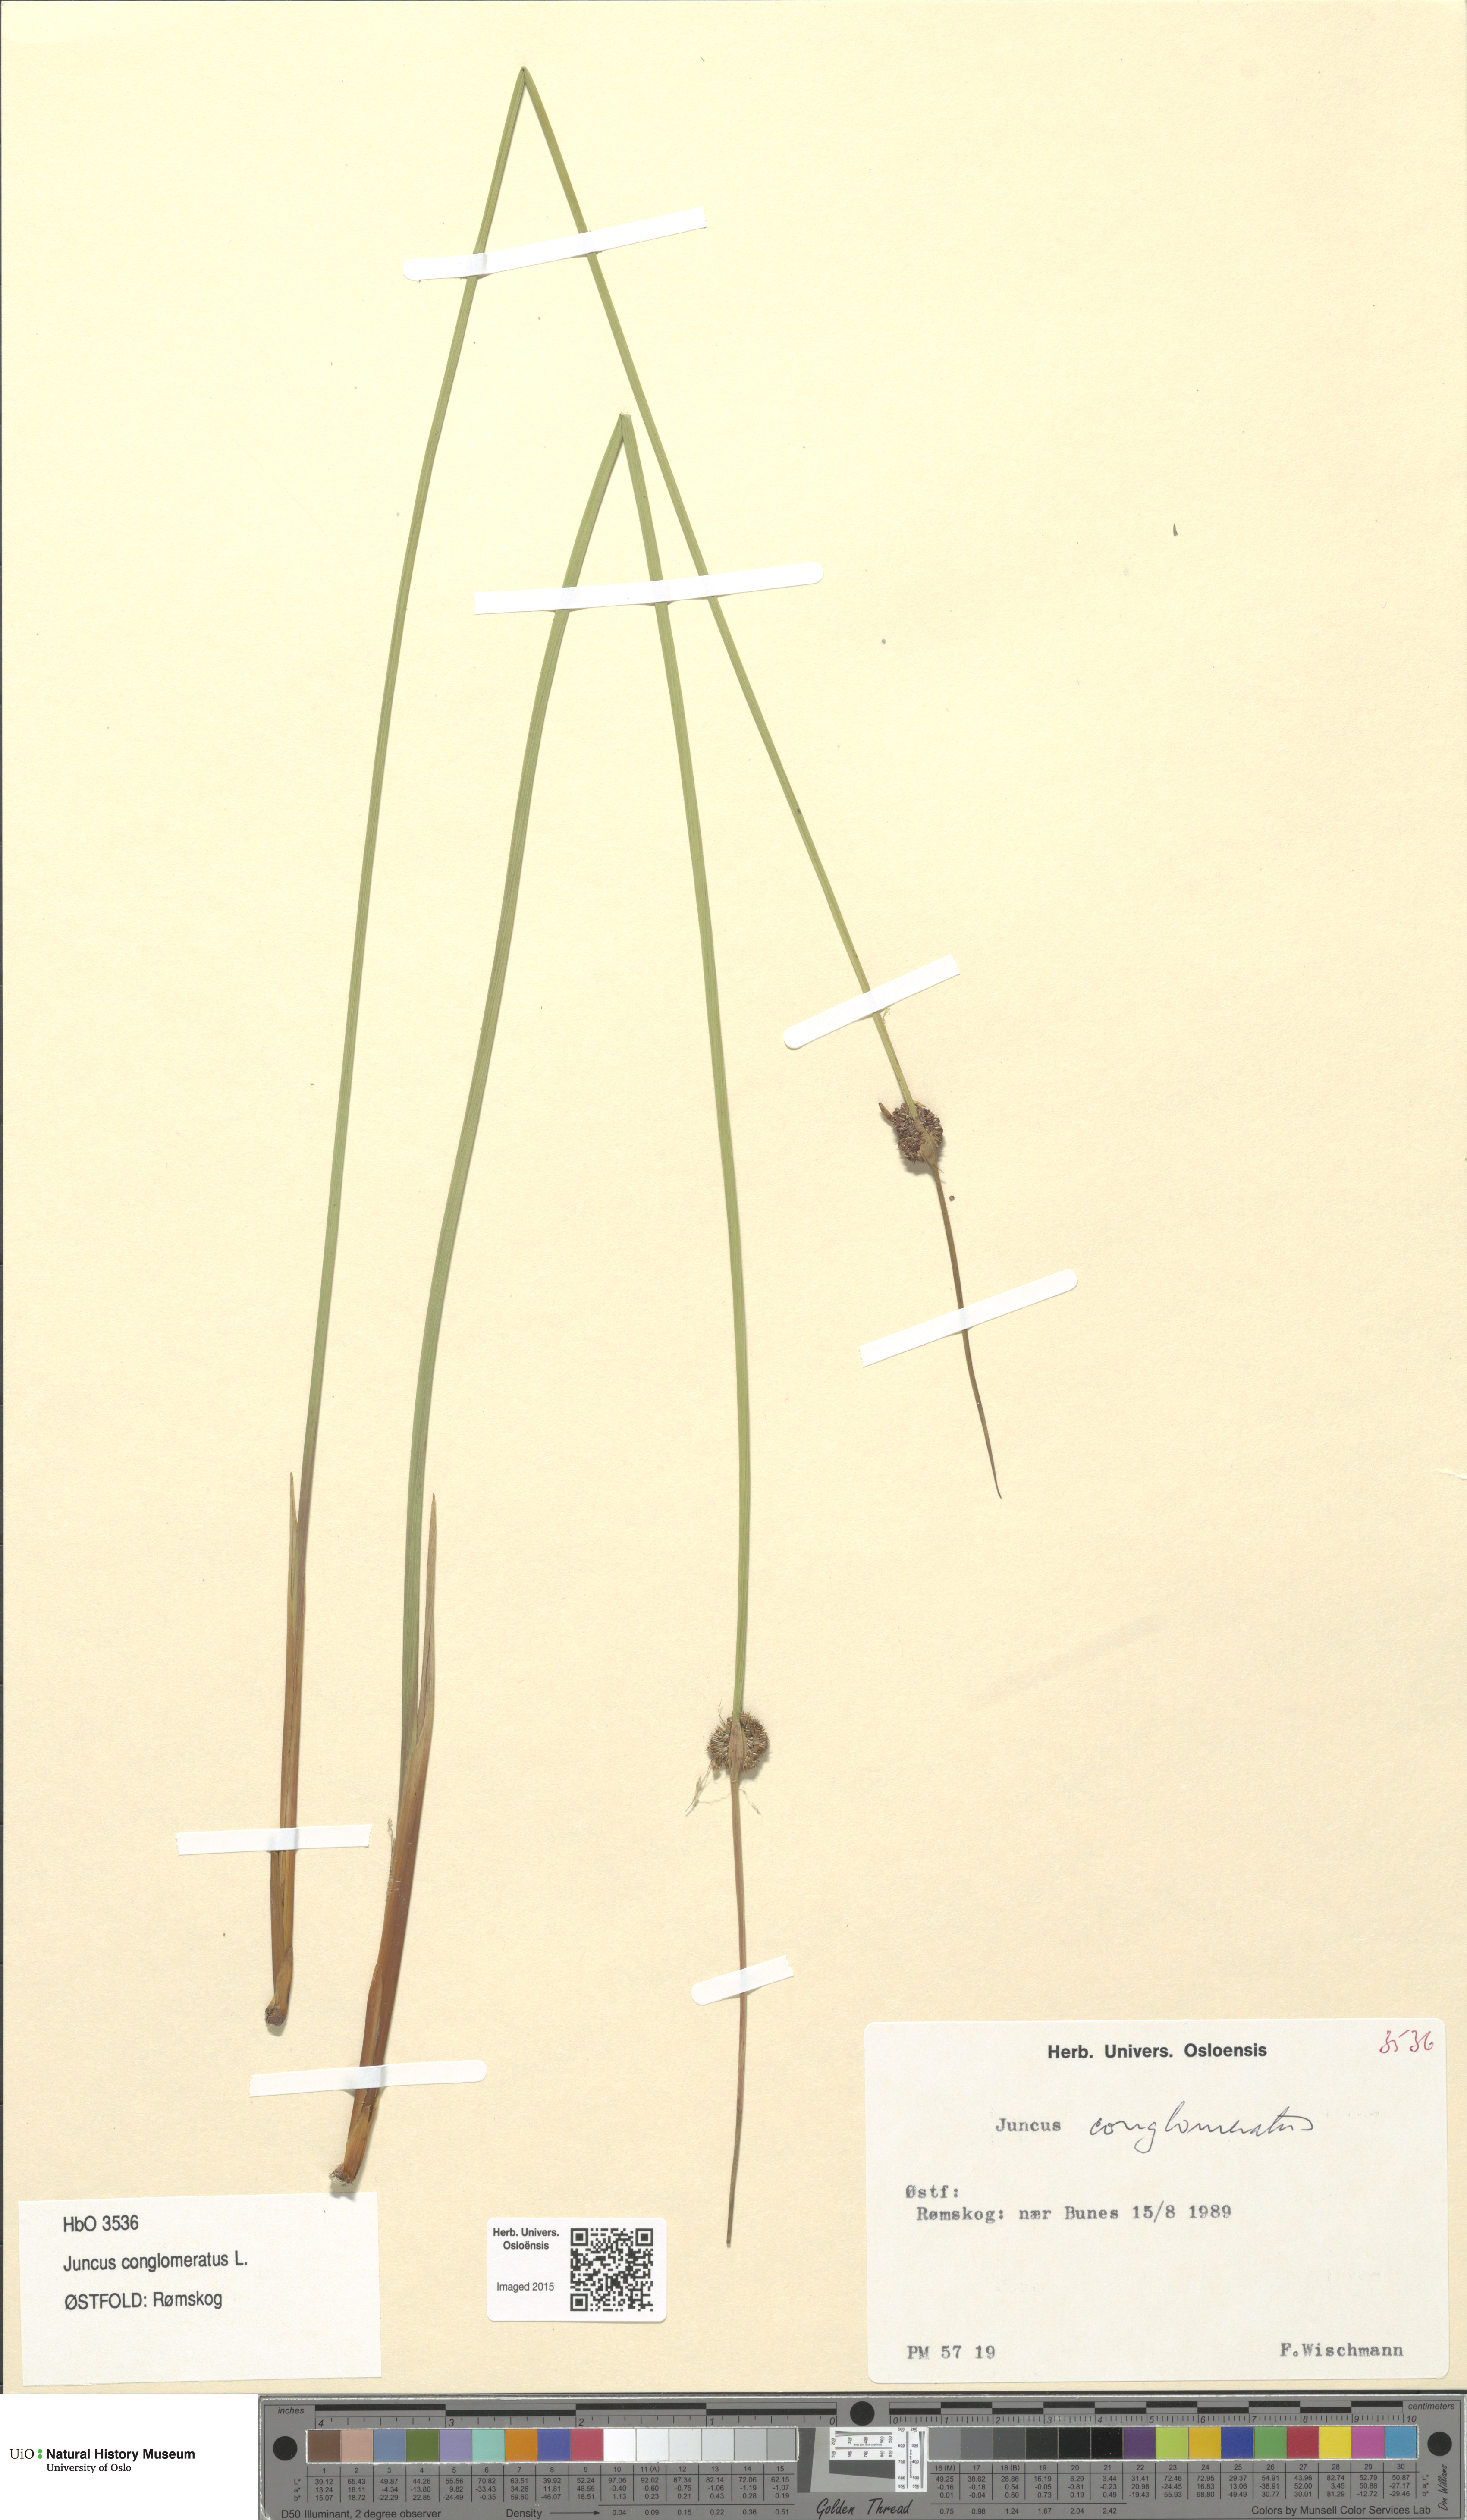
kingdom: Plantae
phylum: Tracheophyta
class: Liliopsida
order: Poales
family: Juncaceae
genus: Juncus
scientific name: Juncus conglomeratus
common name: Compact rush
